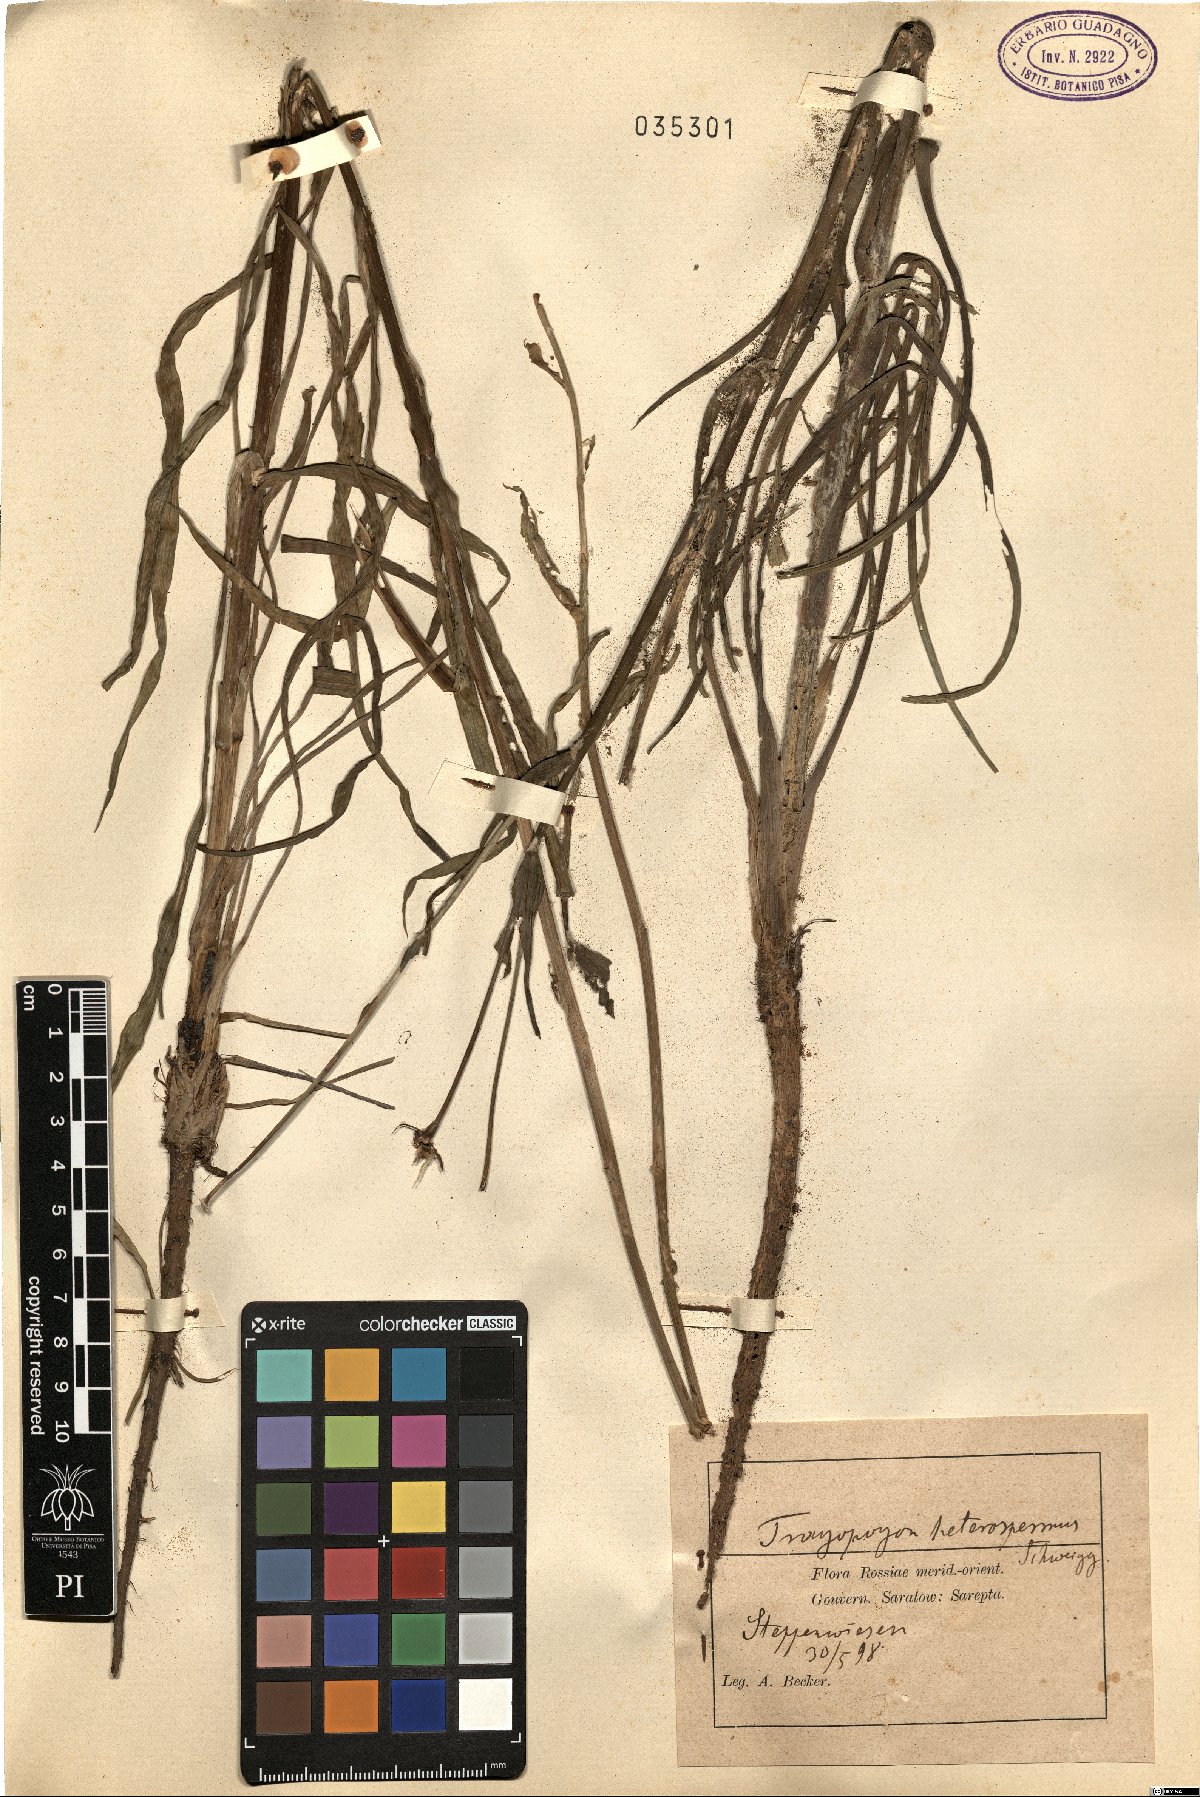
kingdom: Plantae
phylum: Tracheophyta
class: Magnoliopsida
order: Asterales
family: Asteraceae
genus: Tragopogon
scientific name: Tragopogon heterospermus
